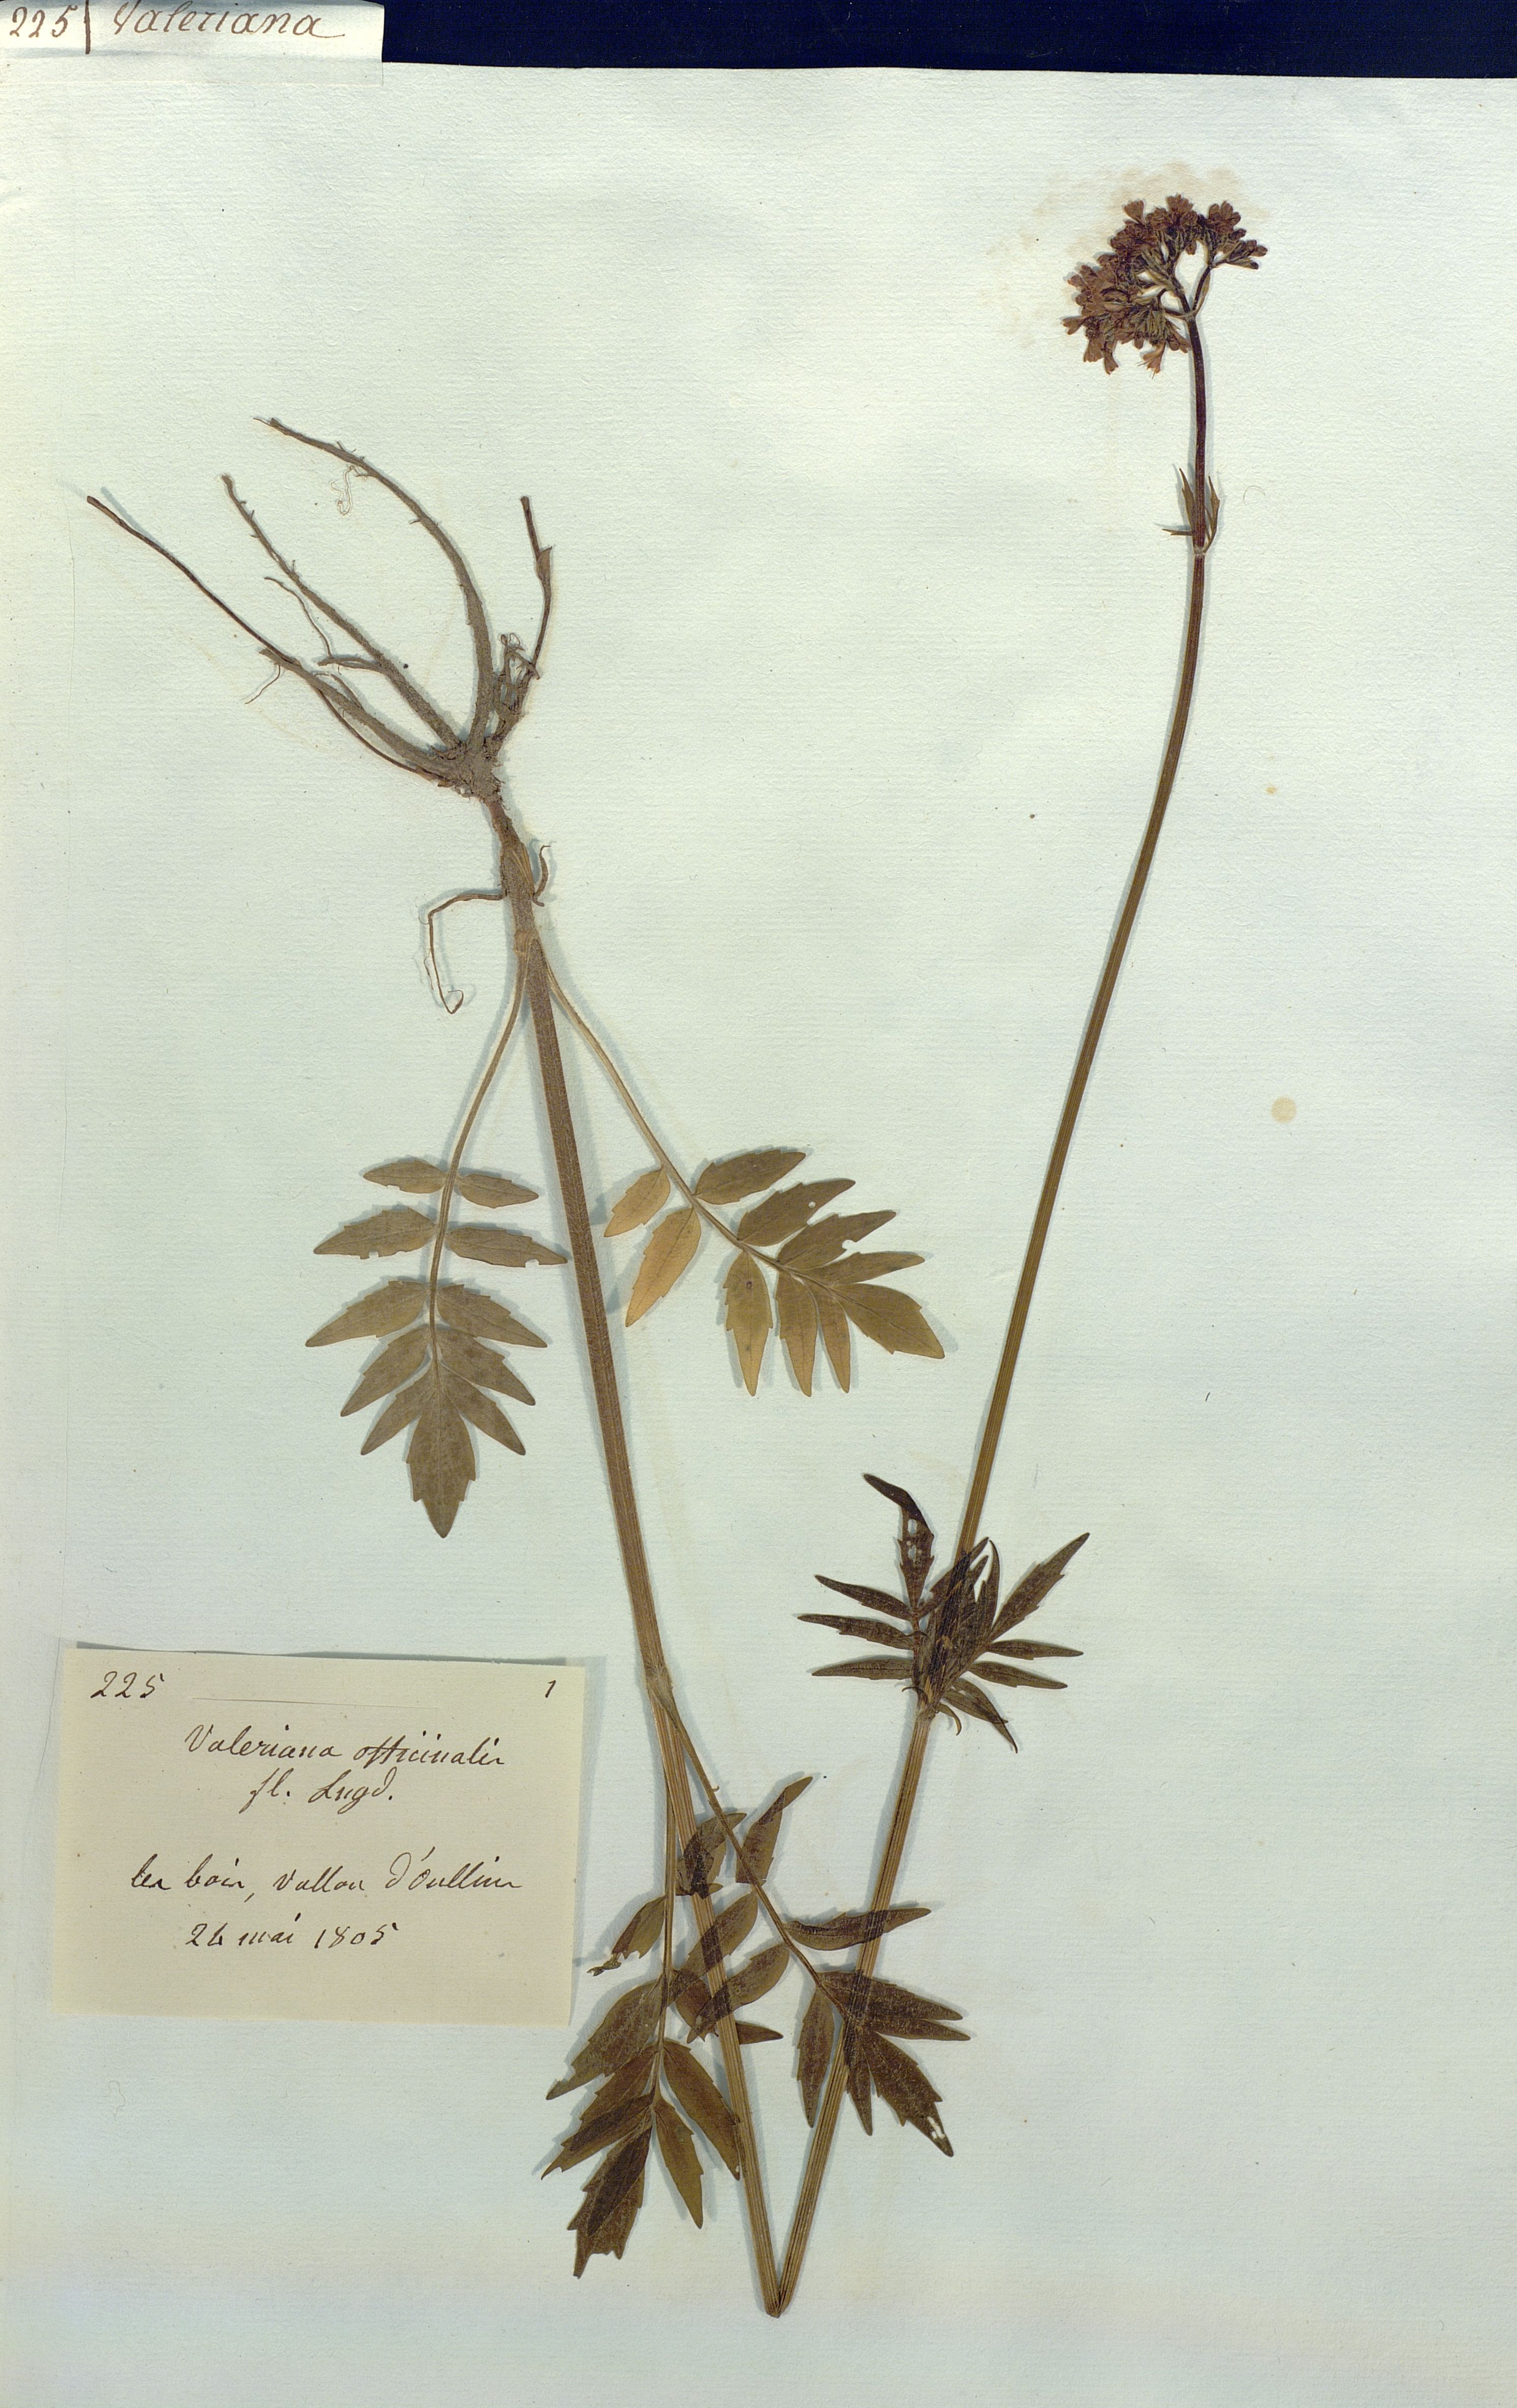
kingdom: Plantae
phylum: Tracheophyta
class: Magnoliopsida
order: Dipsacales
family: Caprifoliaceae
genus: Valeriana
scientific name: Valeriana officinalis
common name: Common valerian
